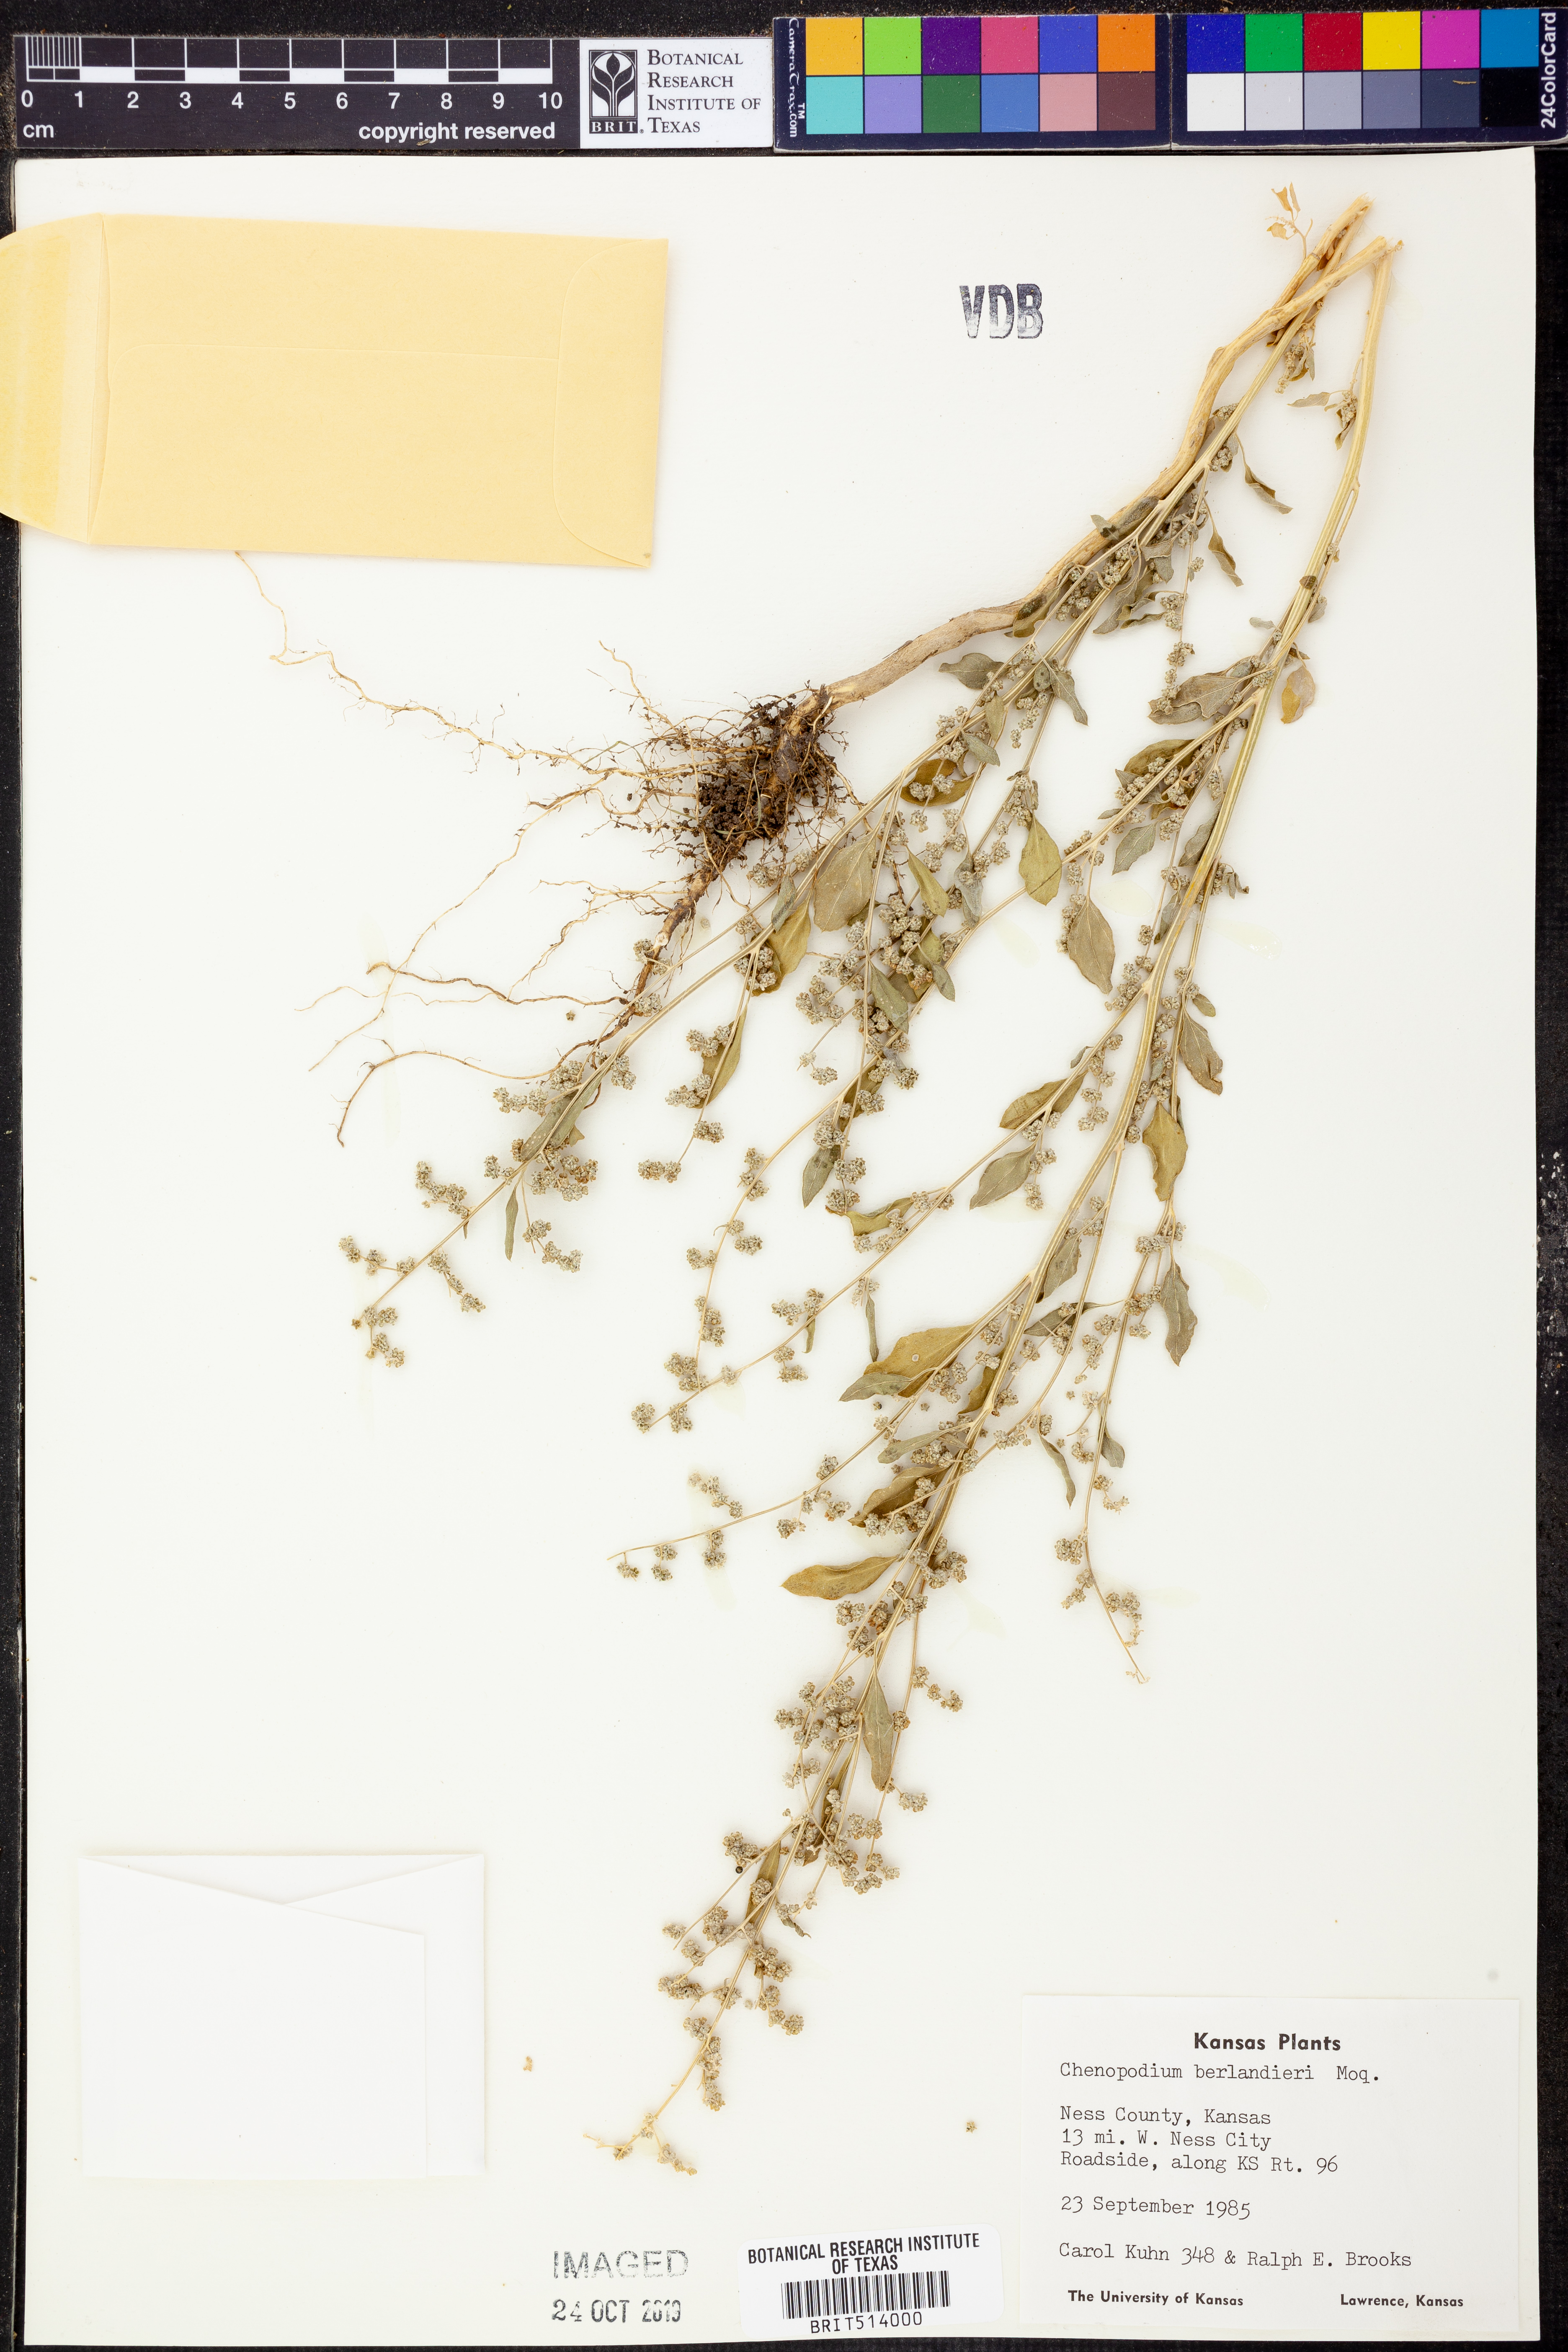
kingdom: Plantae
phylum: Tracheophyta
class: Magnoliopsida
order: Caryophyllales
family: Amaranthaceae
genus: Chenopodium
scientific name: Chenopodium berlandieri
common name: Pit-seed goosefoot
